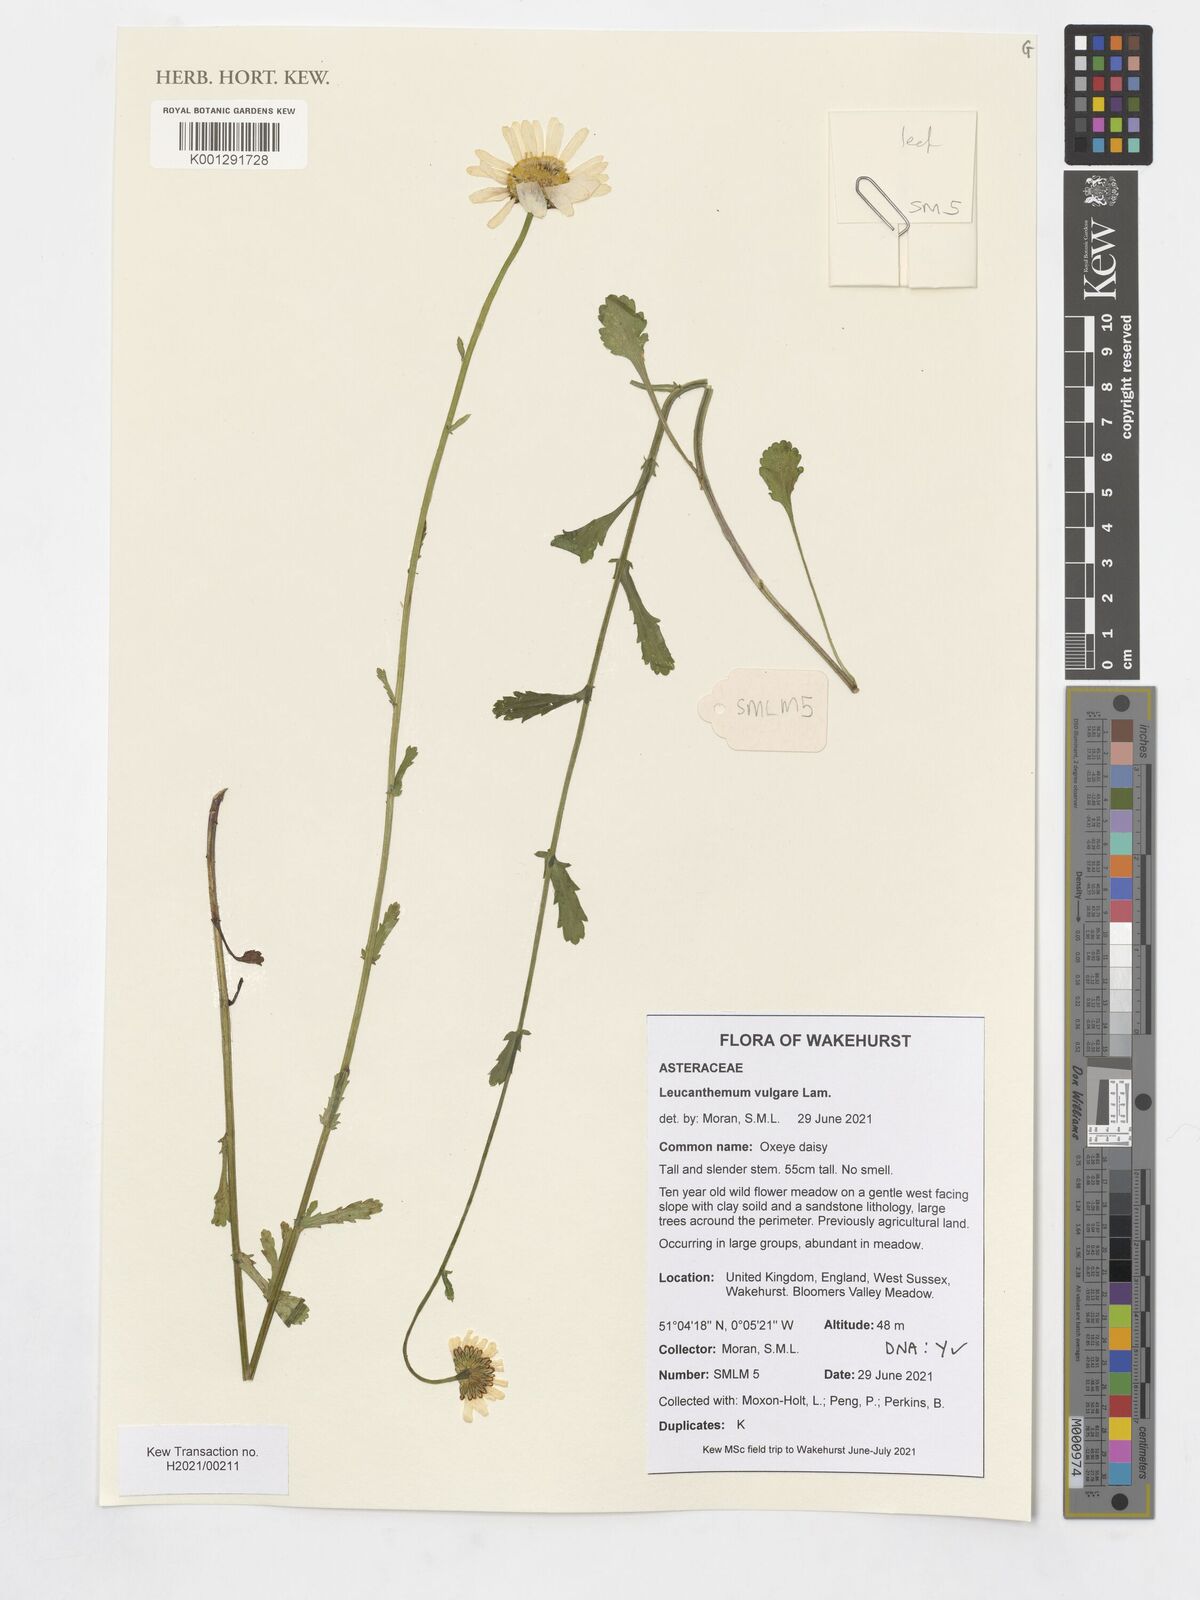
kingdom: Plantae
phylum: Tracheophyta
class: Magnoliopsida
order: Asterales
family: Asteraceae
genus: Leucanthemum
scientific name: Leucanthemum vulgare
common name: Oxeye daisy
